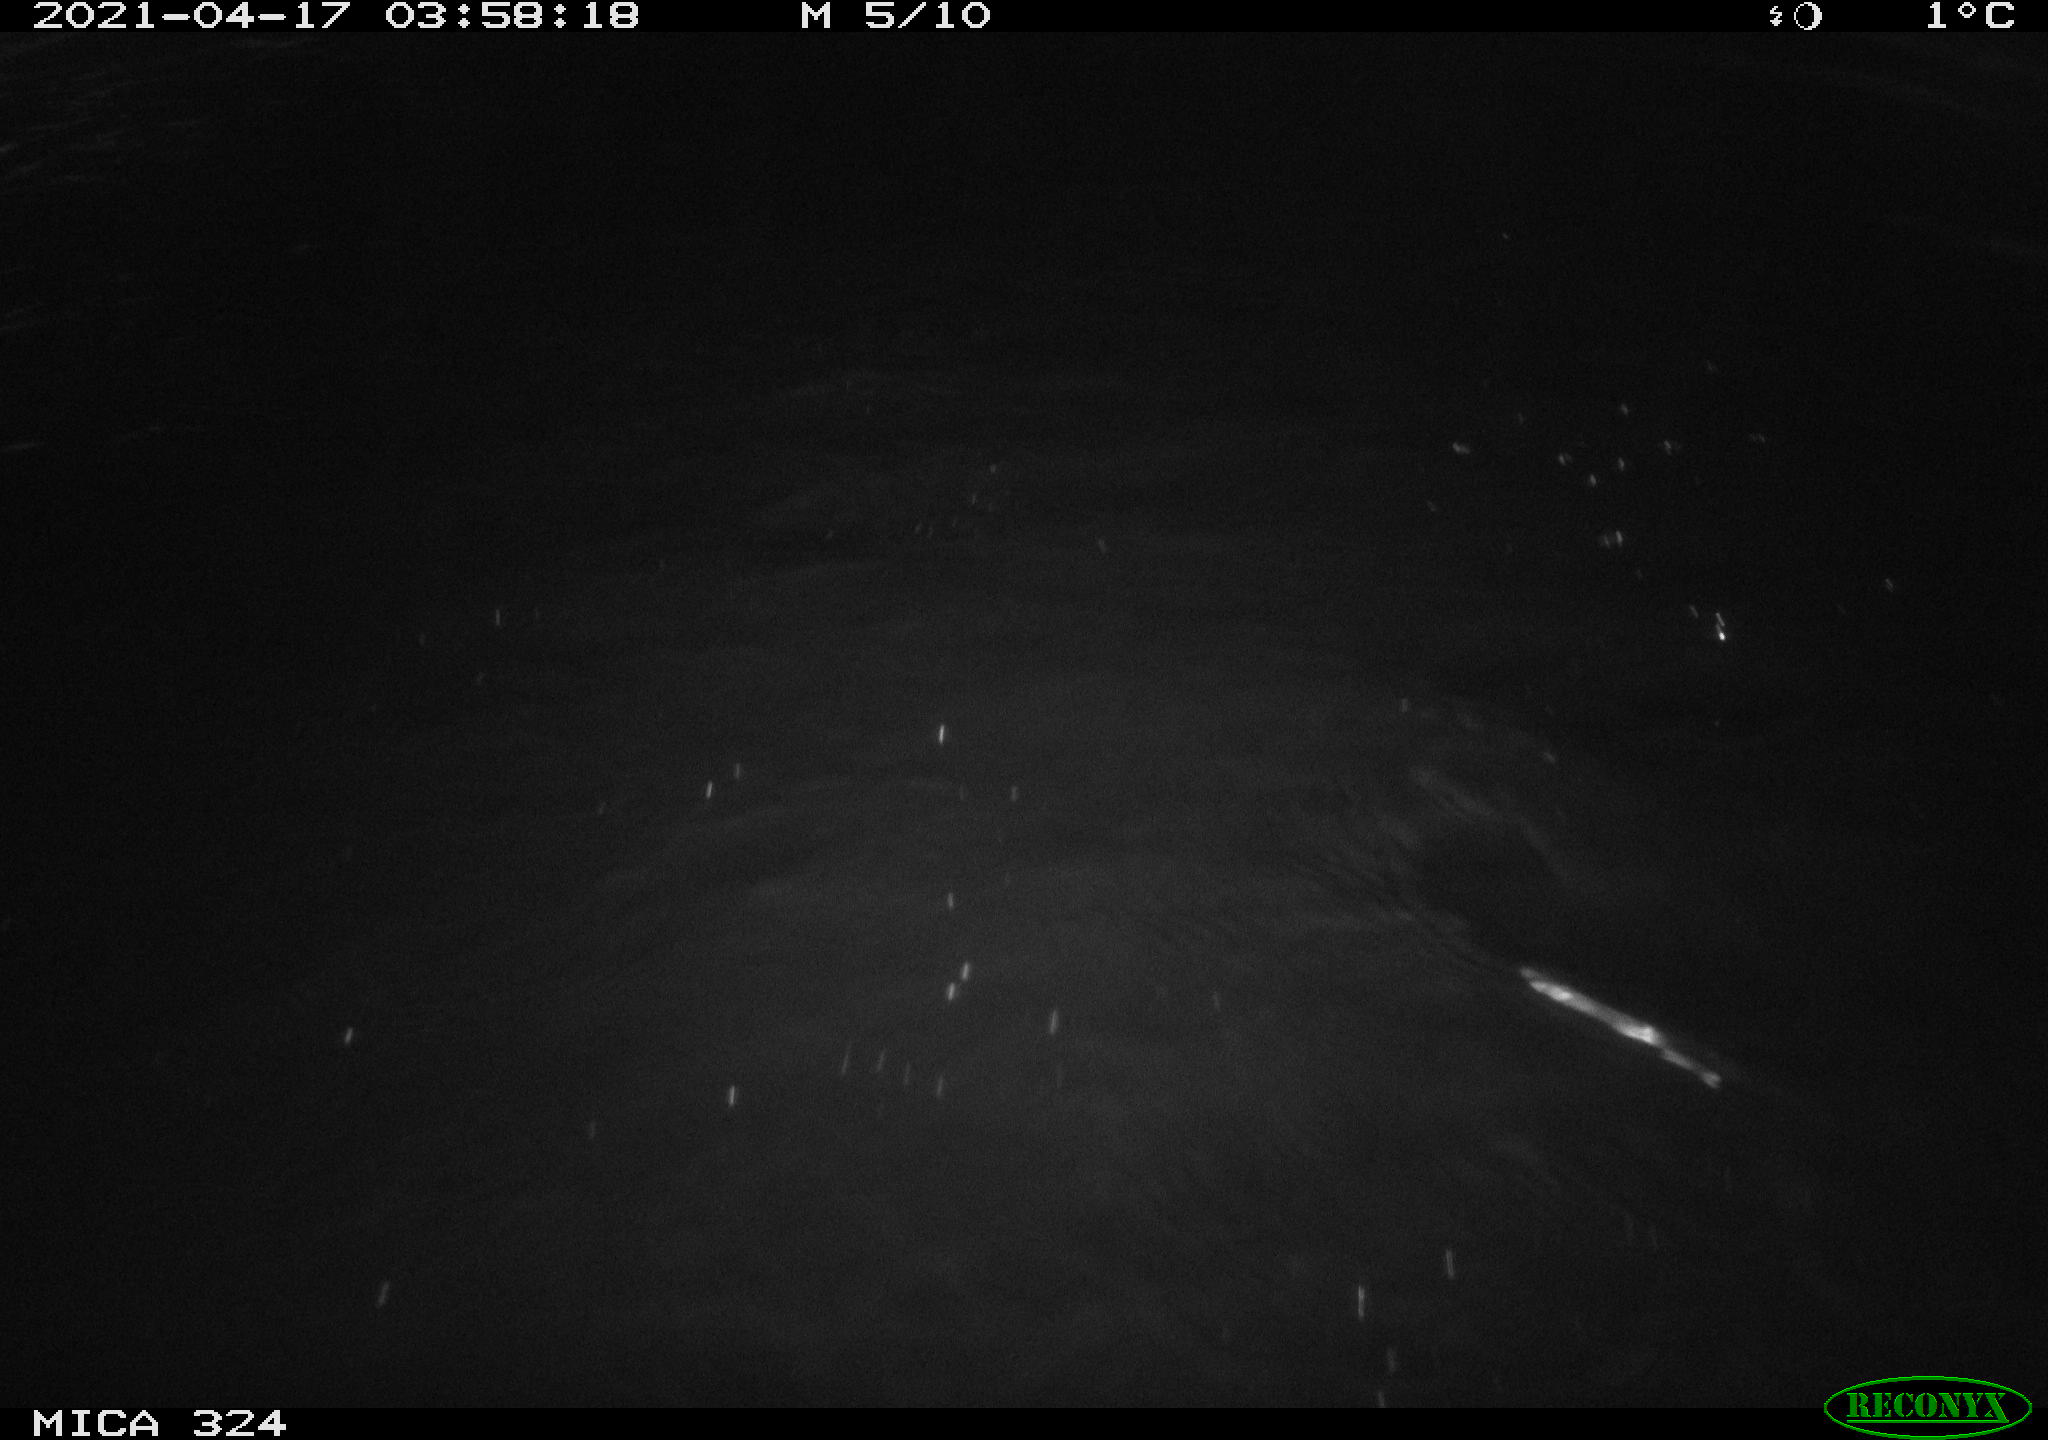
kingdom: Animalia
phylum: Chordata
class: Aves
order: Anseriformes
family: Anatidae
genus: Anas
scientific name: Anas platyrhynchos
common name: Mallard
